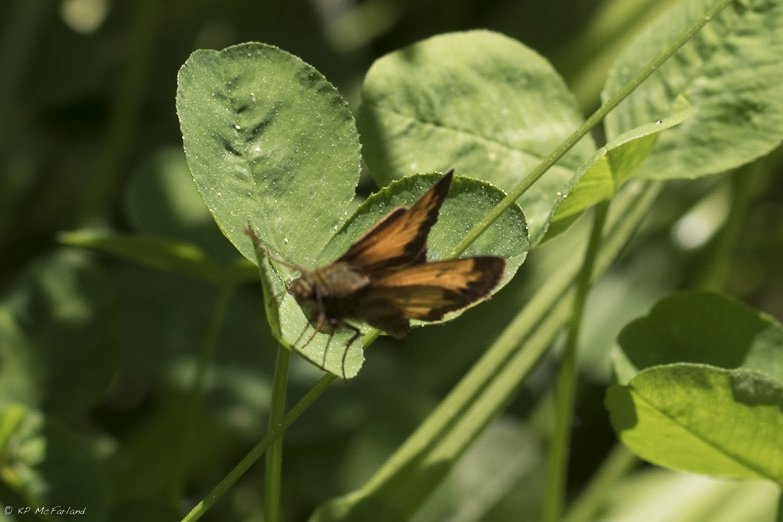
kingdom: Animalia
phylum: Arthropoda
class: Insecta
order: Lepidoptera
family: Hesperiidae
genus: Lon
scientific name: Lon hobomok
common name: Hobomok Skipper
